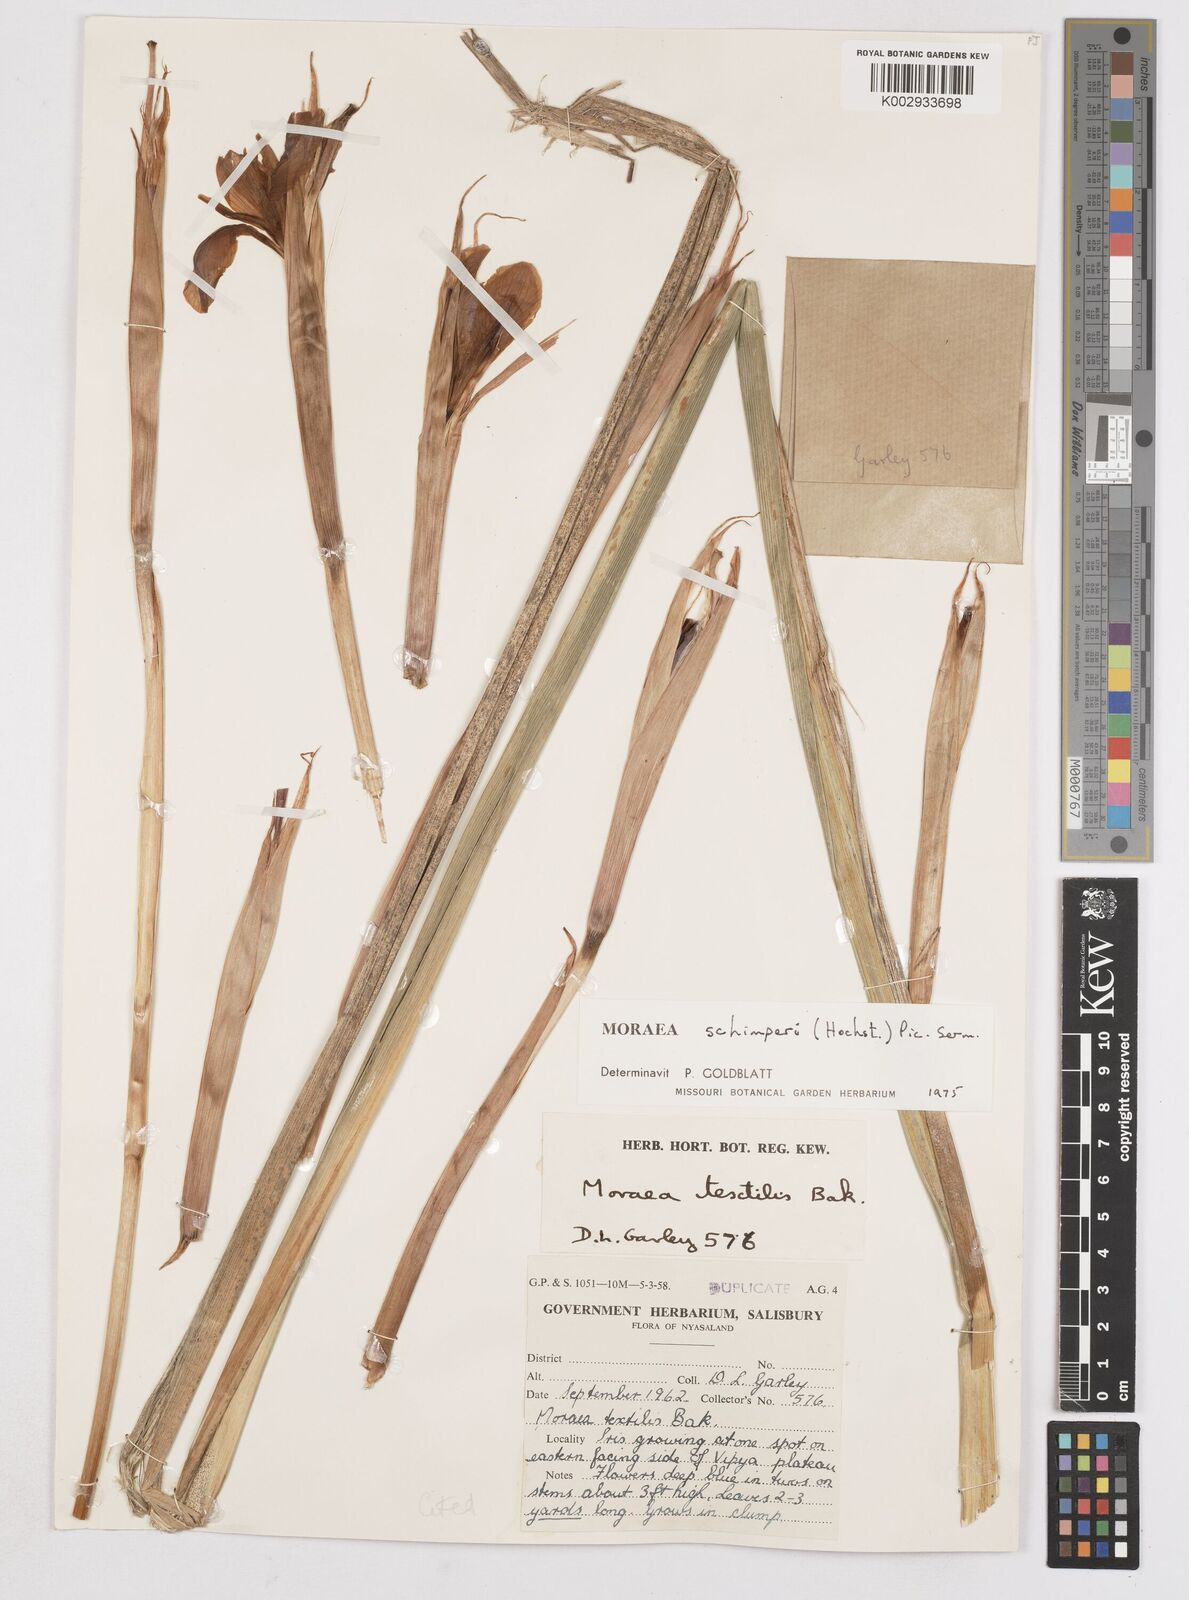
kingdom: Plantae
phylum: Tracheophyta
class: Liliopsida
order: Asparagales
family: Iridaceae
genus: Moraea
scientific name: Moraea schimperi
